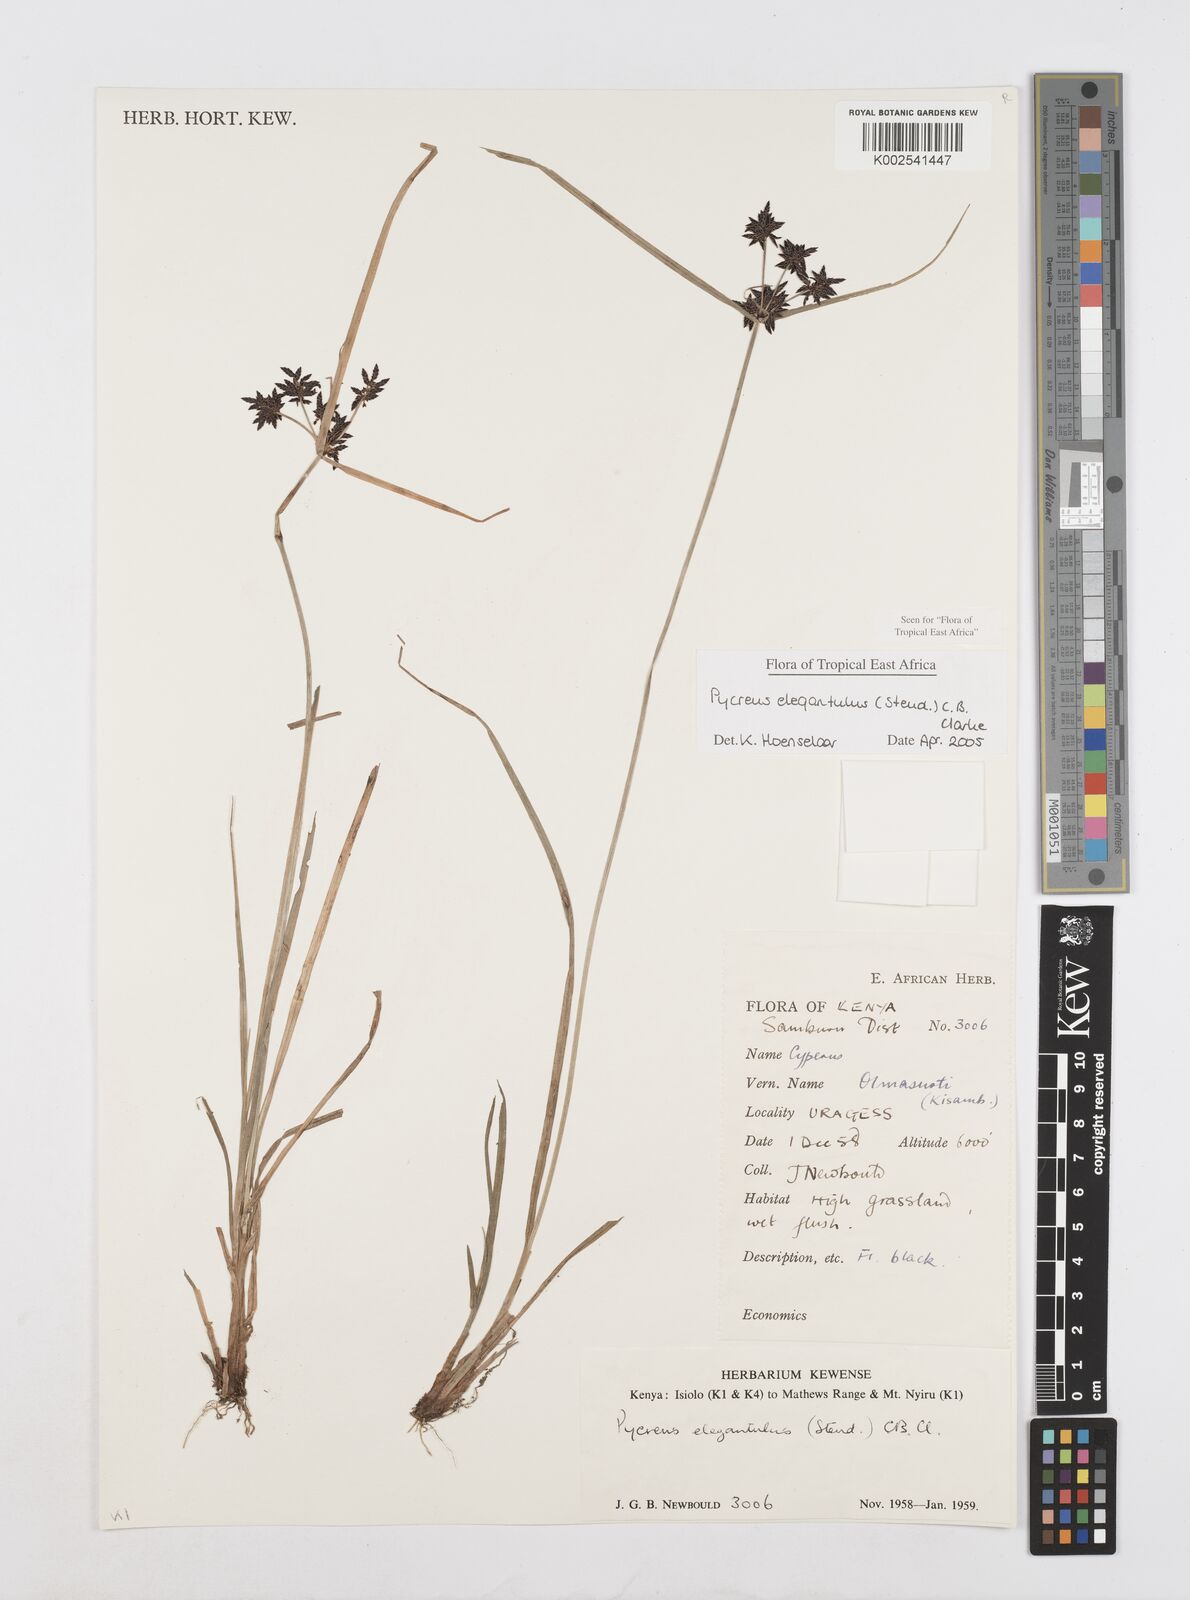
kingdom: Plantae
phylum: Tracheophyta
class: Liliopsida
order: Poales
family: Cyperaceae
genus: Cyperus
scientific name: Cyperus elegantulus
